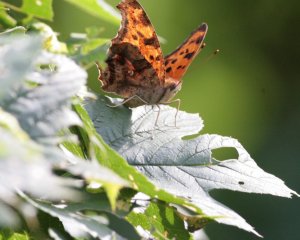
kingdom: Animalia
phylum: Arthropoda
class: Insecta
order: Lepidoptera
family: Nymphalidae
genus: Polygonia
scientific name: Polygonia interrogationis
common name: Question Mark
